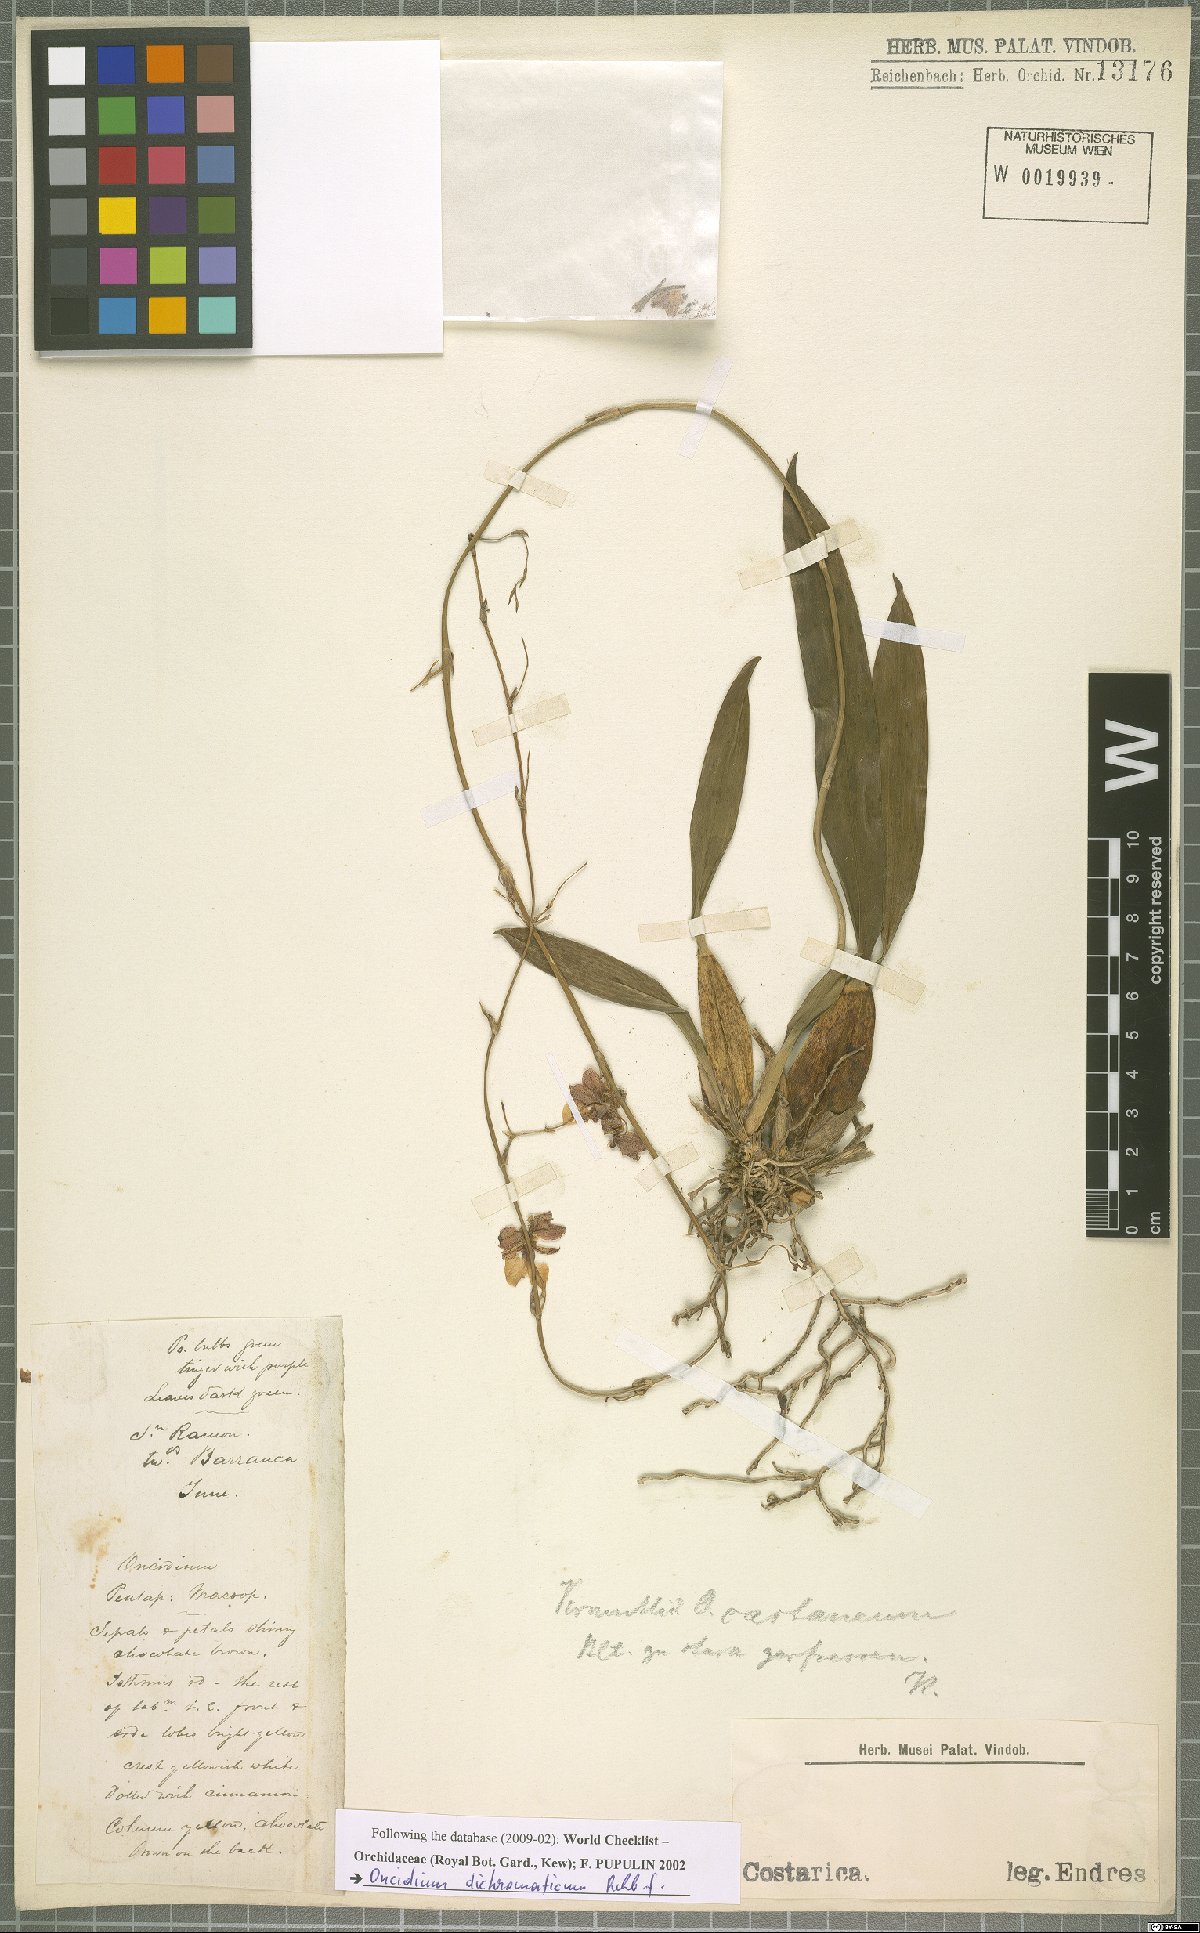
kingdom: Plantae
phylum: Tracheophyta
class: Liliopsida
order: Asparagales
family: Orchidaceae
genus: Oncidium
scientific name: Oncidium dichromaticum
